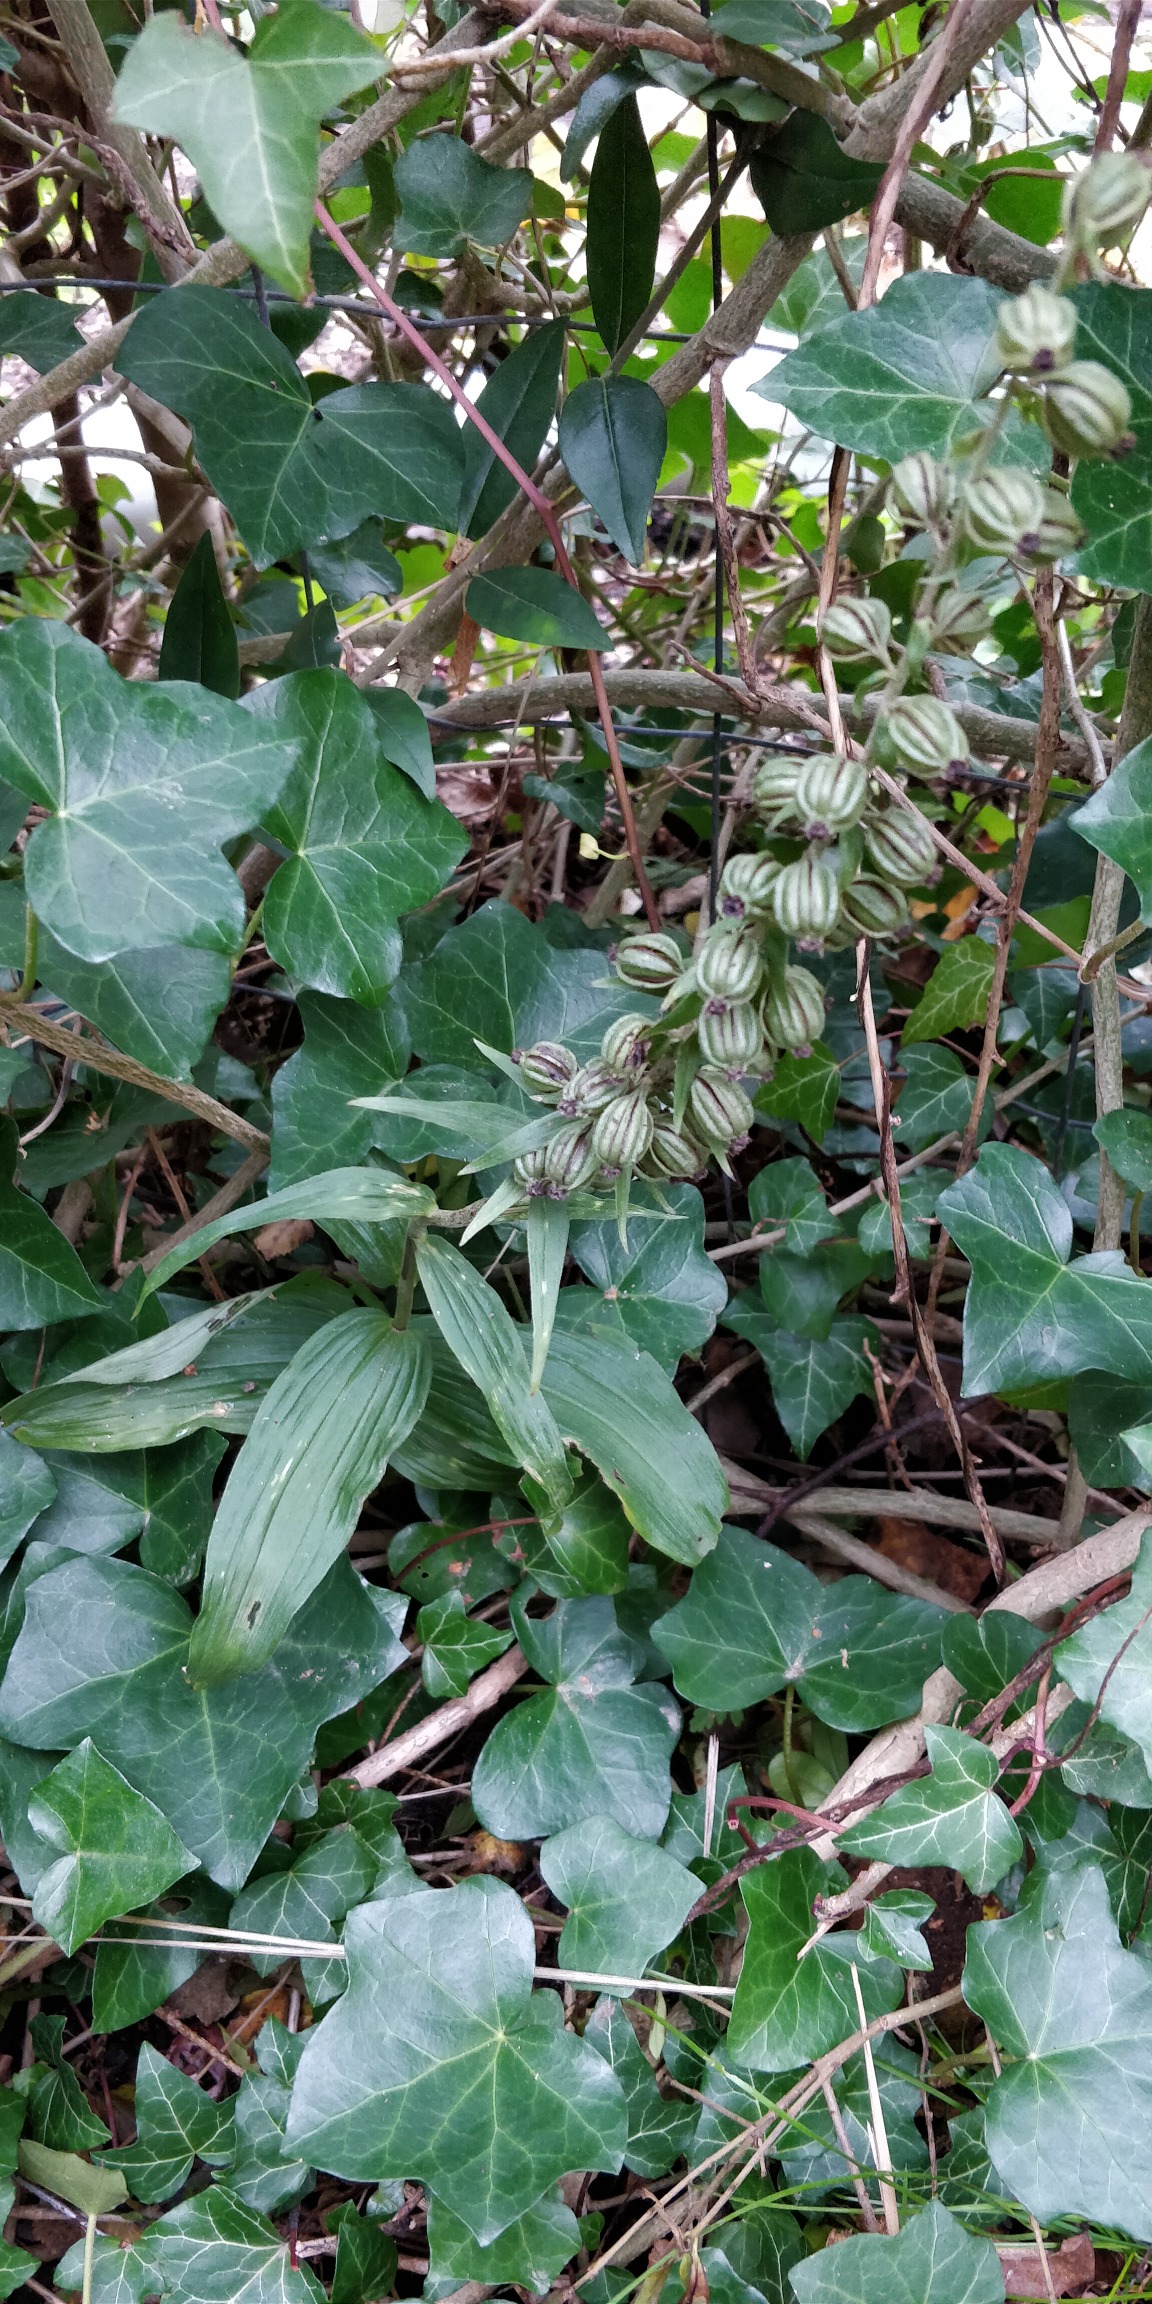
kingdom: Plantae
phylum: Tracheophyta
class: Liliopsida
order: Asparagales
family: Orchidaceae
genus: Epipactis
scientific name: Epipactis helleborine
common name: Skov-hullæbe
